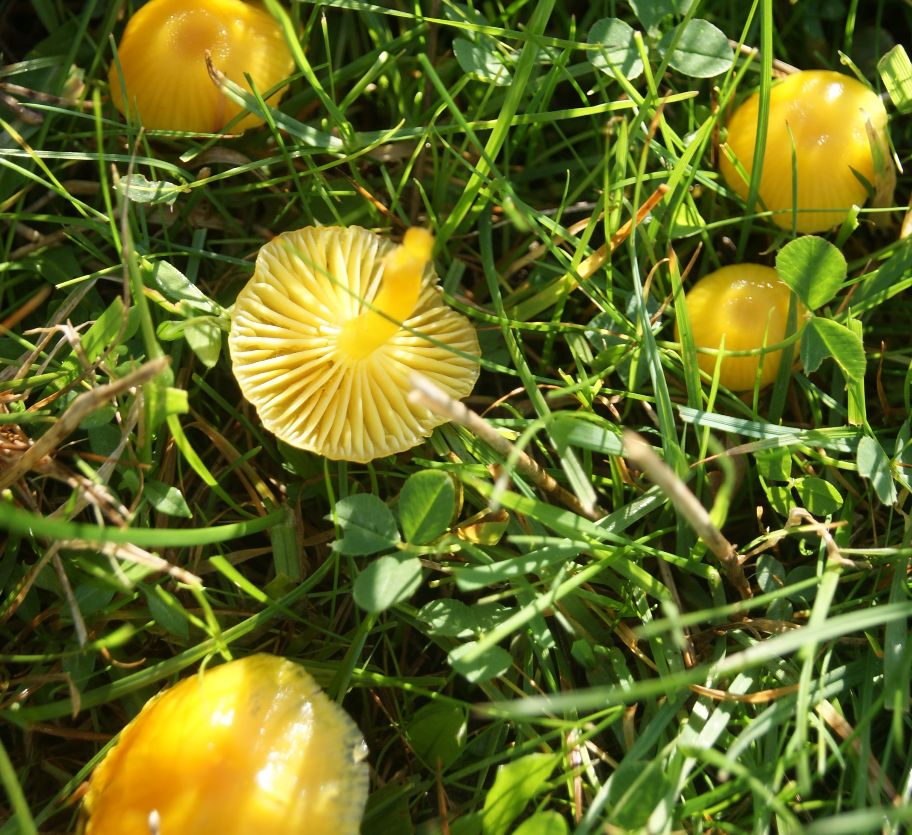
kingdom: Fungi
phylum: Basidiomycota
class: Agaricomycetes
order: Agaricales
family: Hygrophoraceae
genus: Hygrocybe
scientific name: Hygrocybe ceracea
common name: voksgul vokshat
